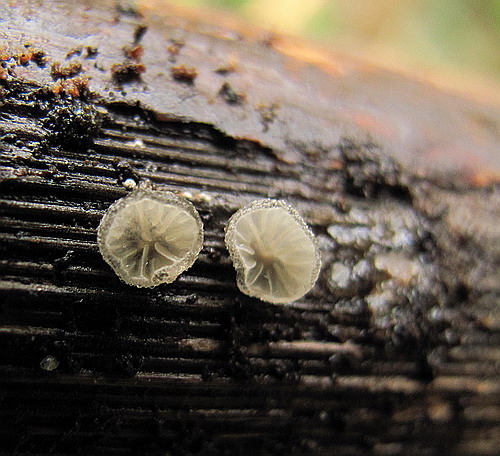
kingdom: Fungi
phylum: Basidiomycota
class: Agaricomycetes
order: Agaricales
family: Pleurotaceae
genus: Hohenbuehelia
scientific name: Hohenbuehelia cyphelliformis
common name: urte-filthat
